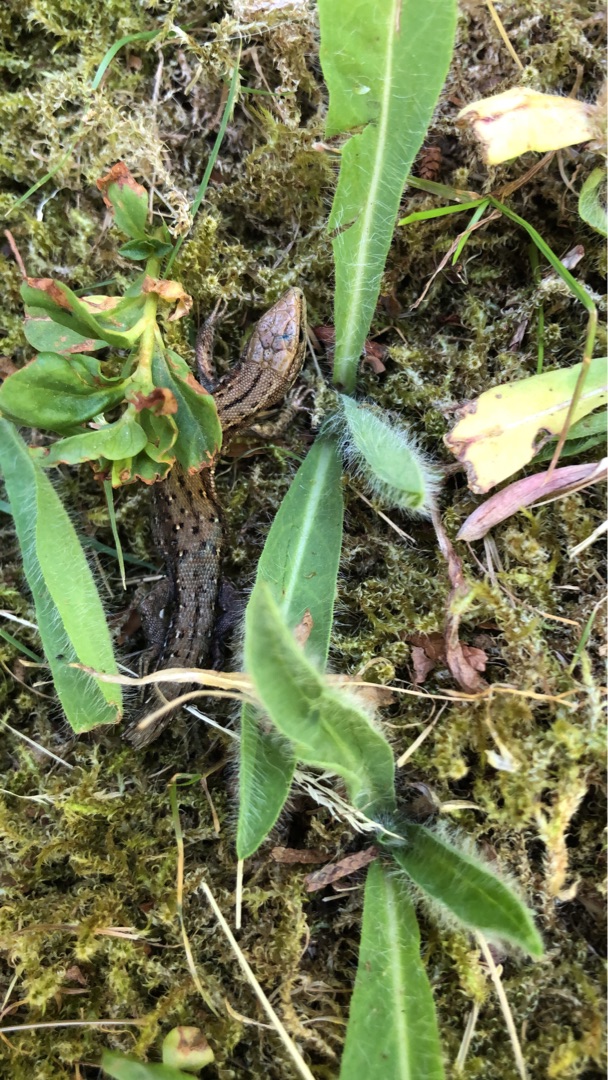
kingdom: Animalia
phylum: Chordata
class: Squamata
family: Lacertidae
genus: Zootoca
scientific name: Zootoca vivipara
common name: Skovfirben
